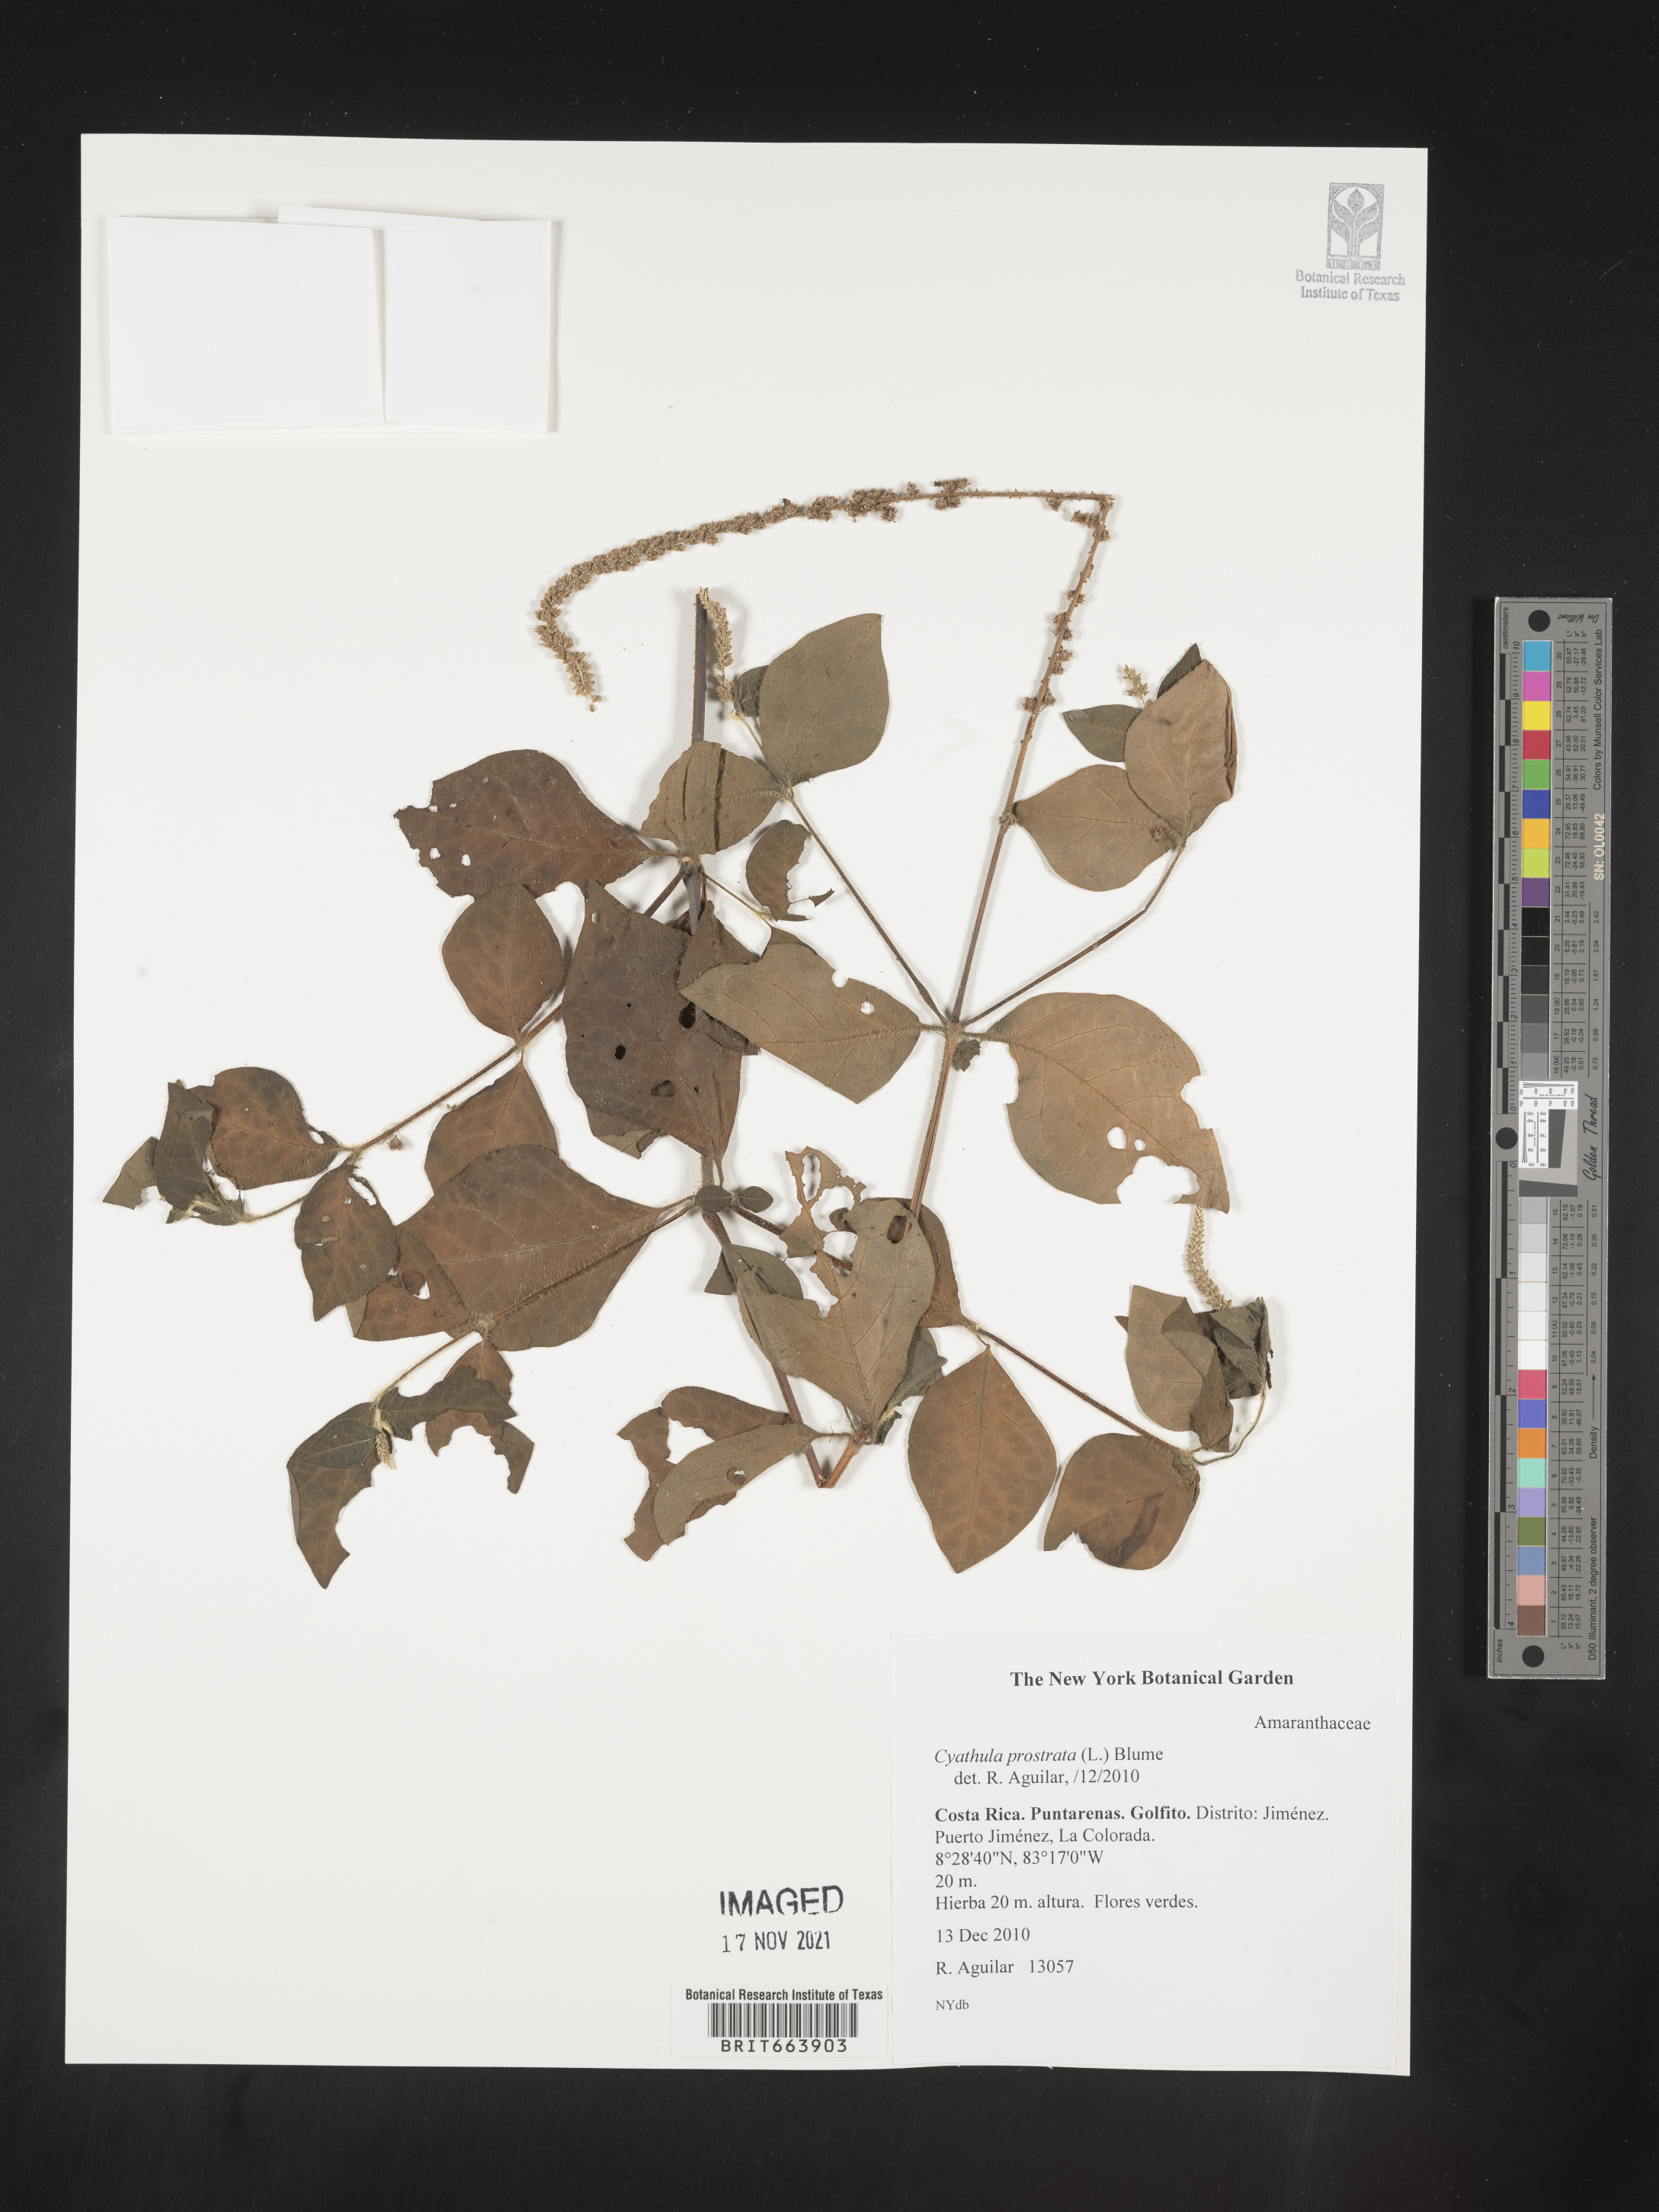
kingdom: Plantae
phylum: Tracheophyta
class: Magnoliopsida
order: Caryophyllales
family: Amaranthaceae
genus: Cyathula
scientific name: Cyathula
